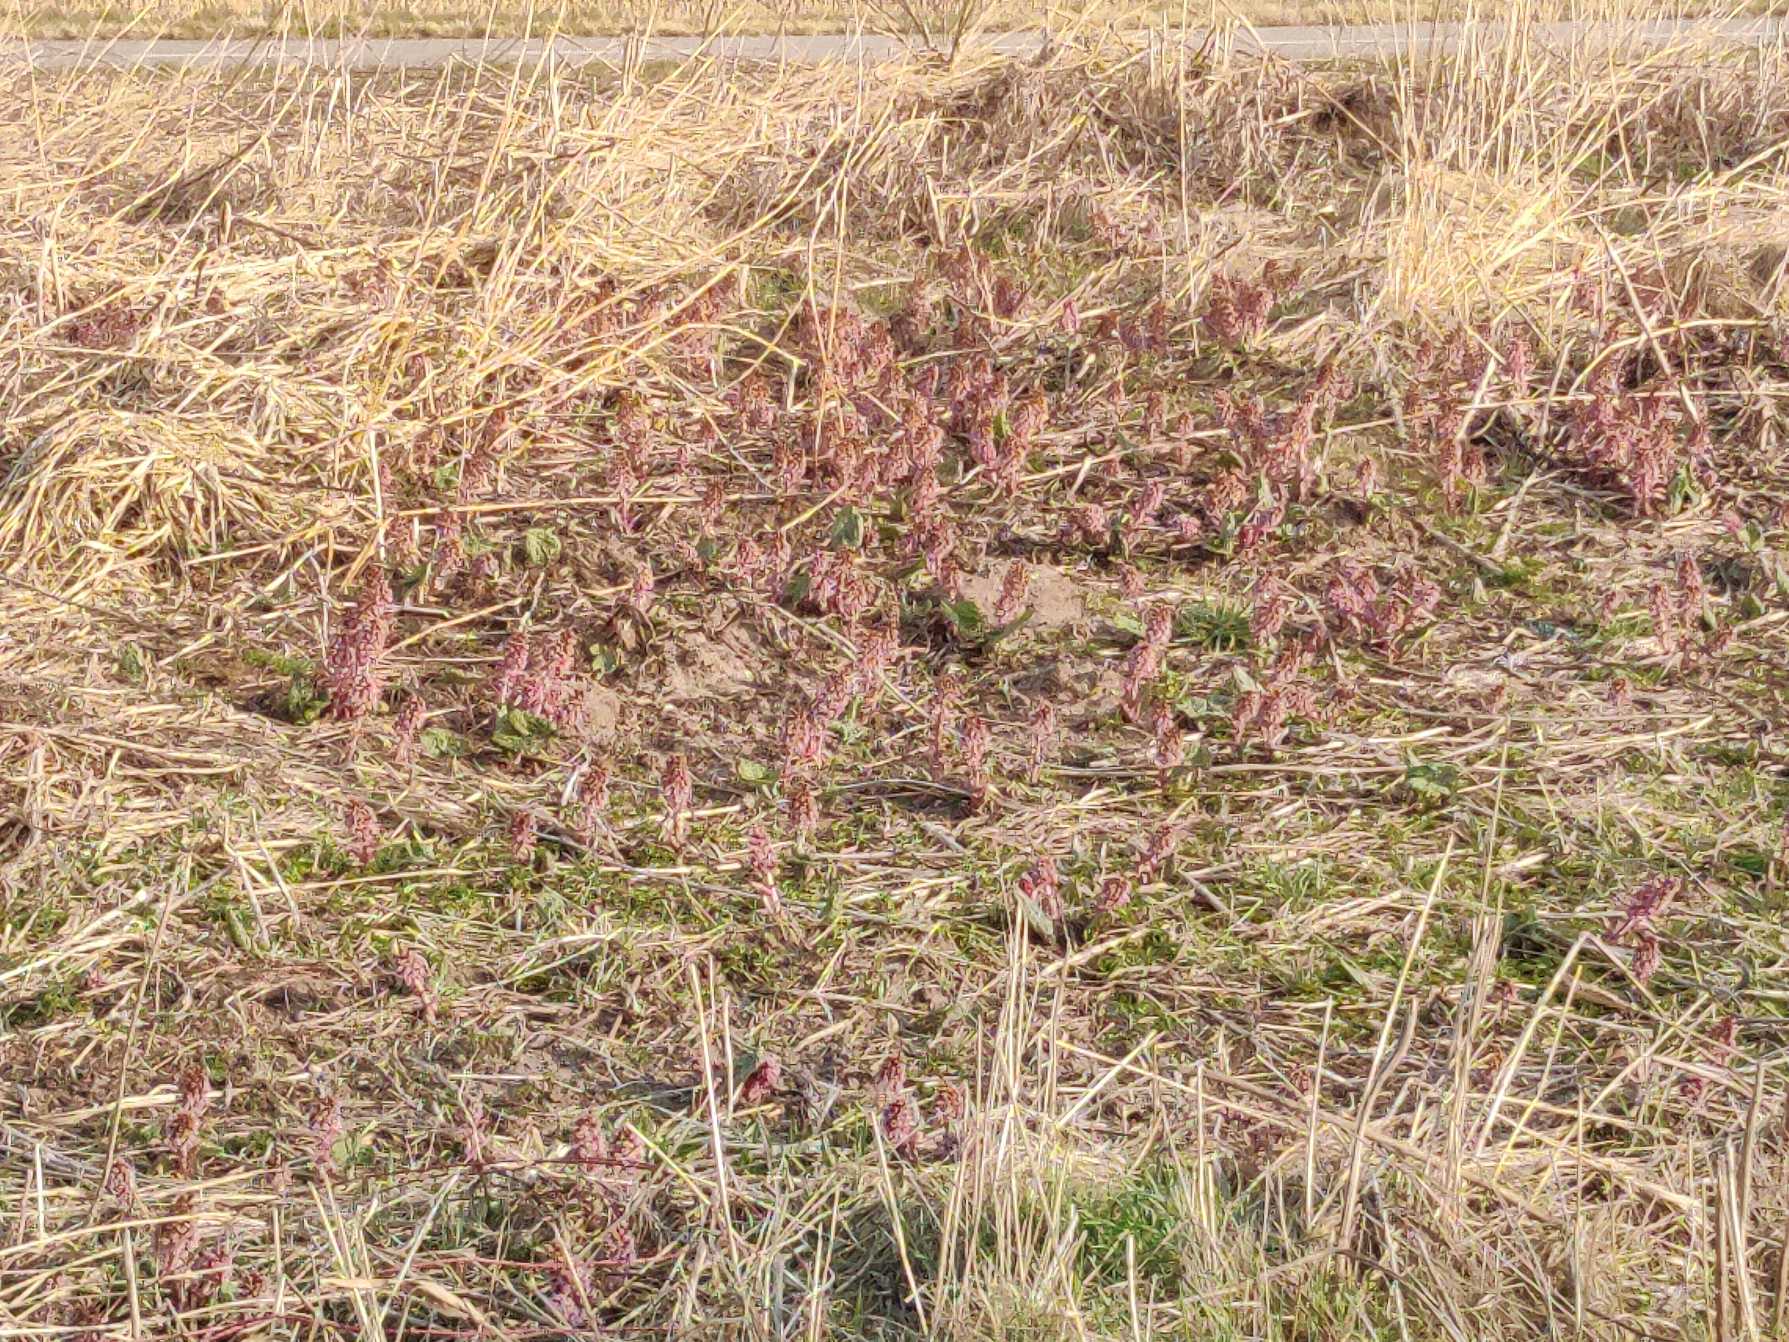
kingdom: Plantae
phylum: Tracheophyta
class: Magnoliopsida
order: Asterales
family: Asteraceae
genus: Petasites
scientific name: Petasites hybridus
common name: Rød hestehov
